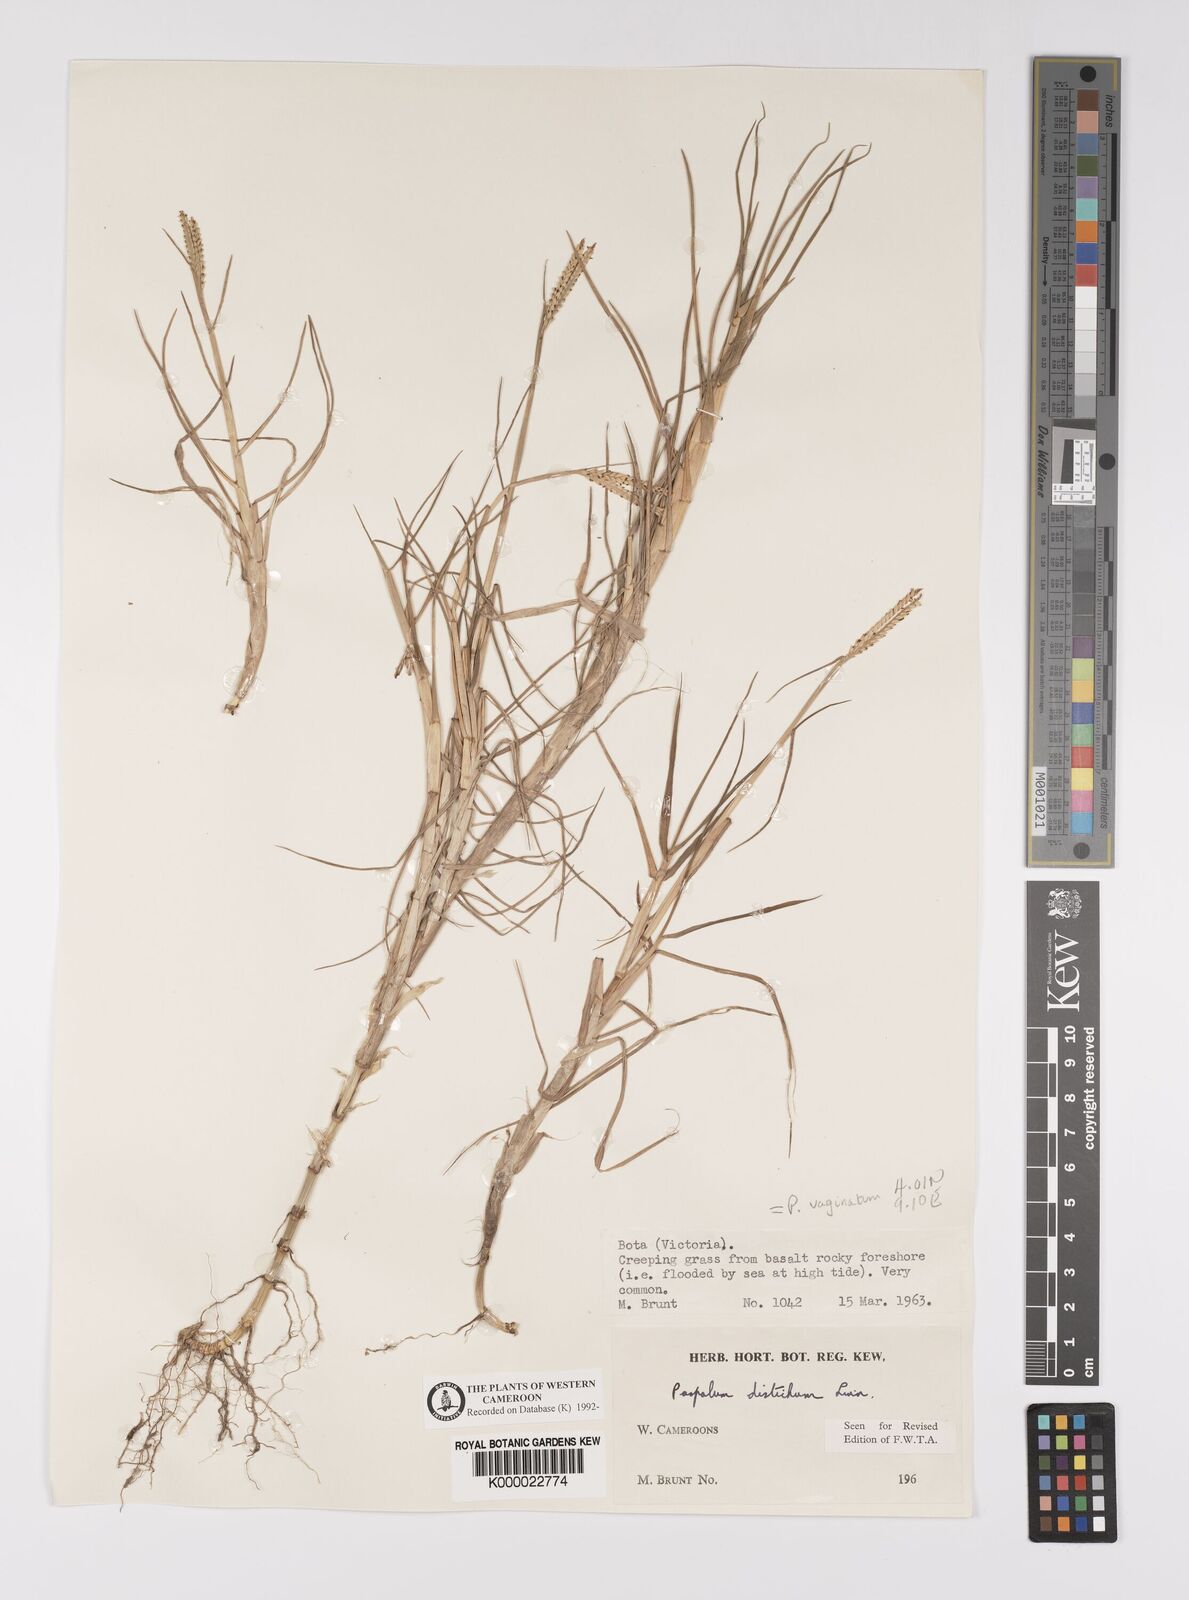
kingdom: Plantae
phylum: Tracheophyta
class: Liliopsida
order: Poales
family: Poaceae
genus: Paspalum
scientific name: Paspalum vaginatum
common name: Seashore paspalum
